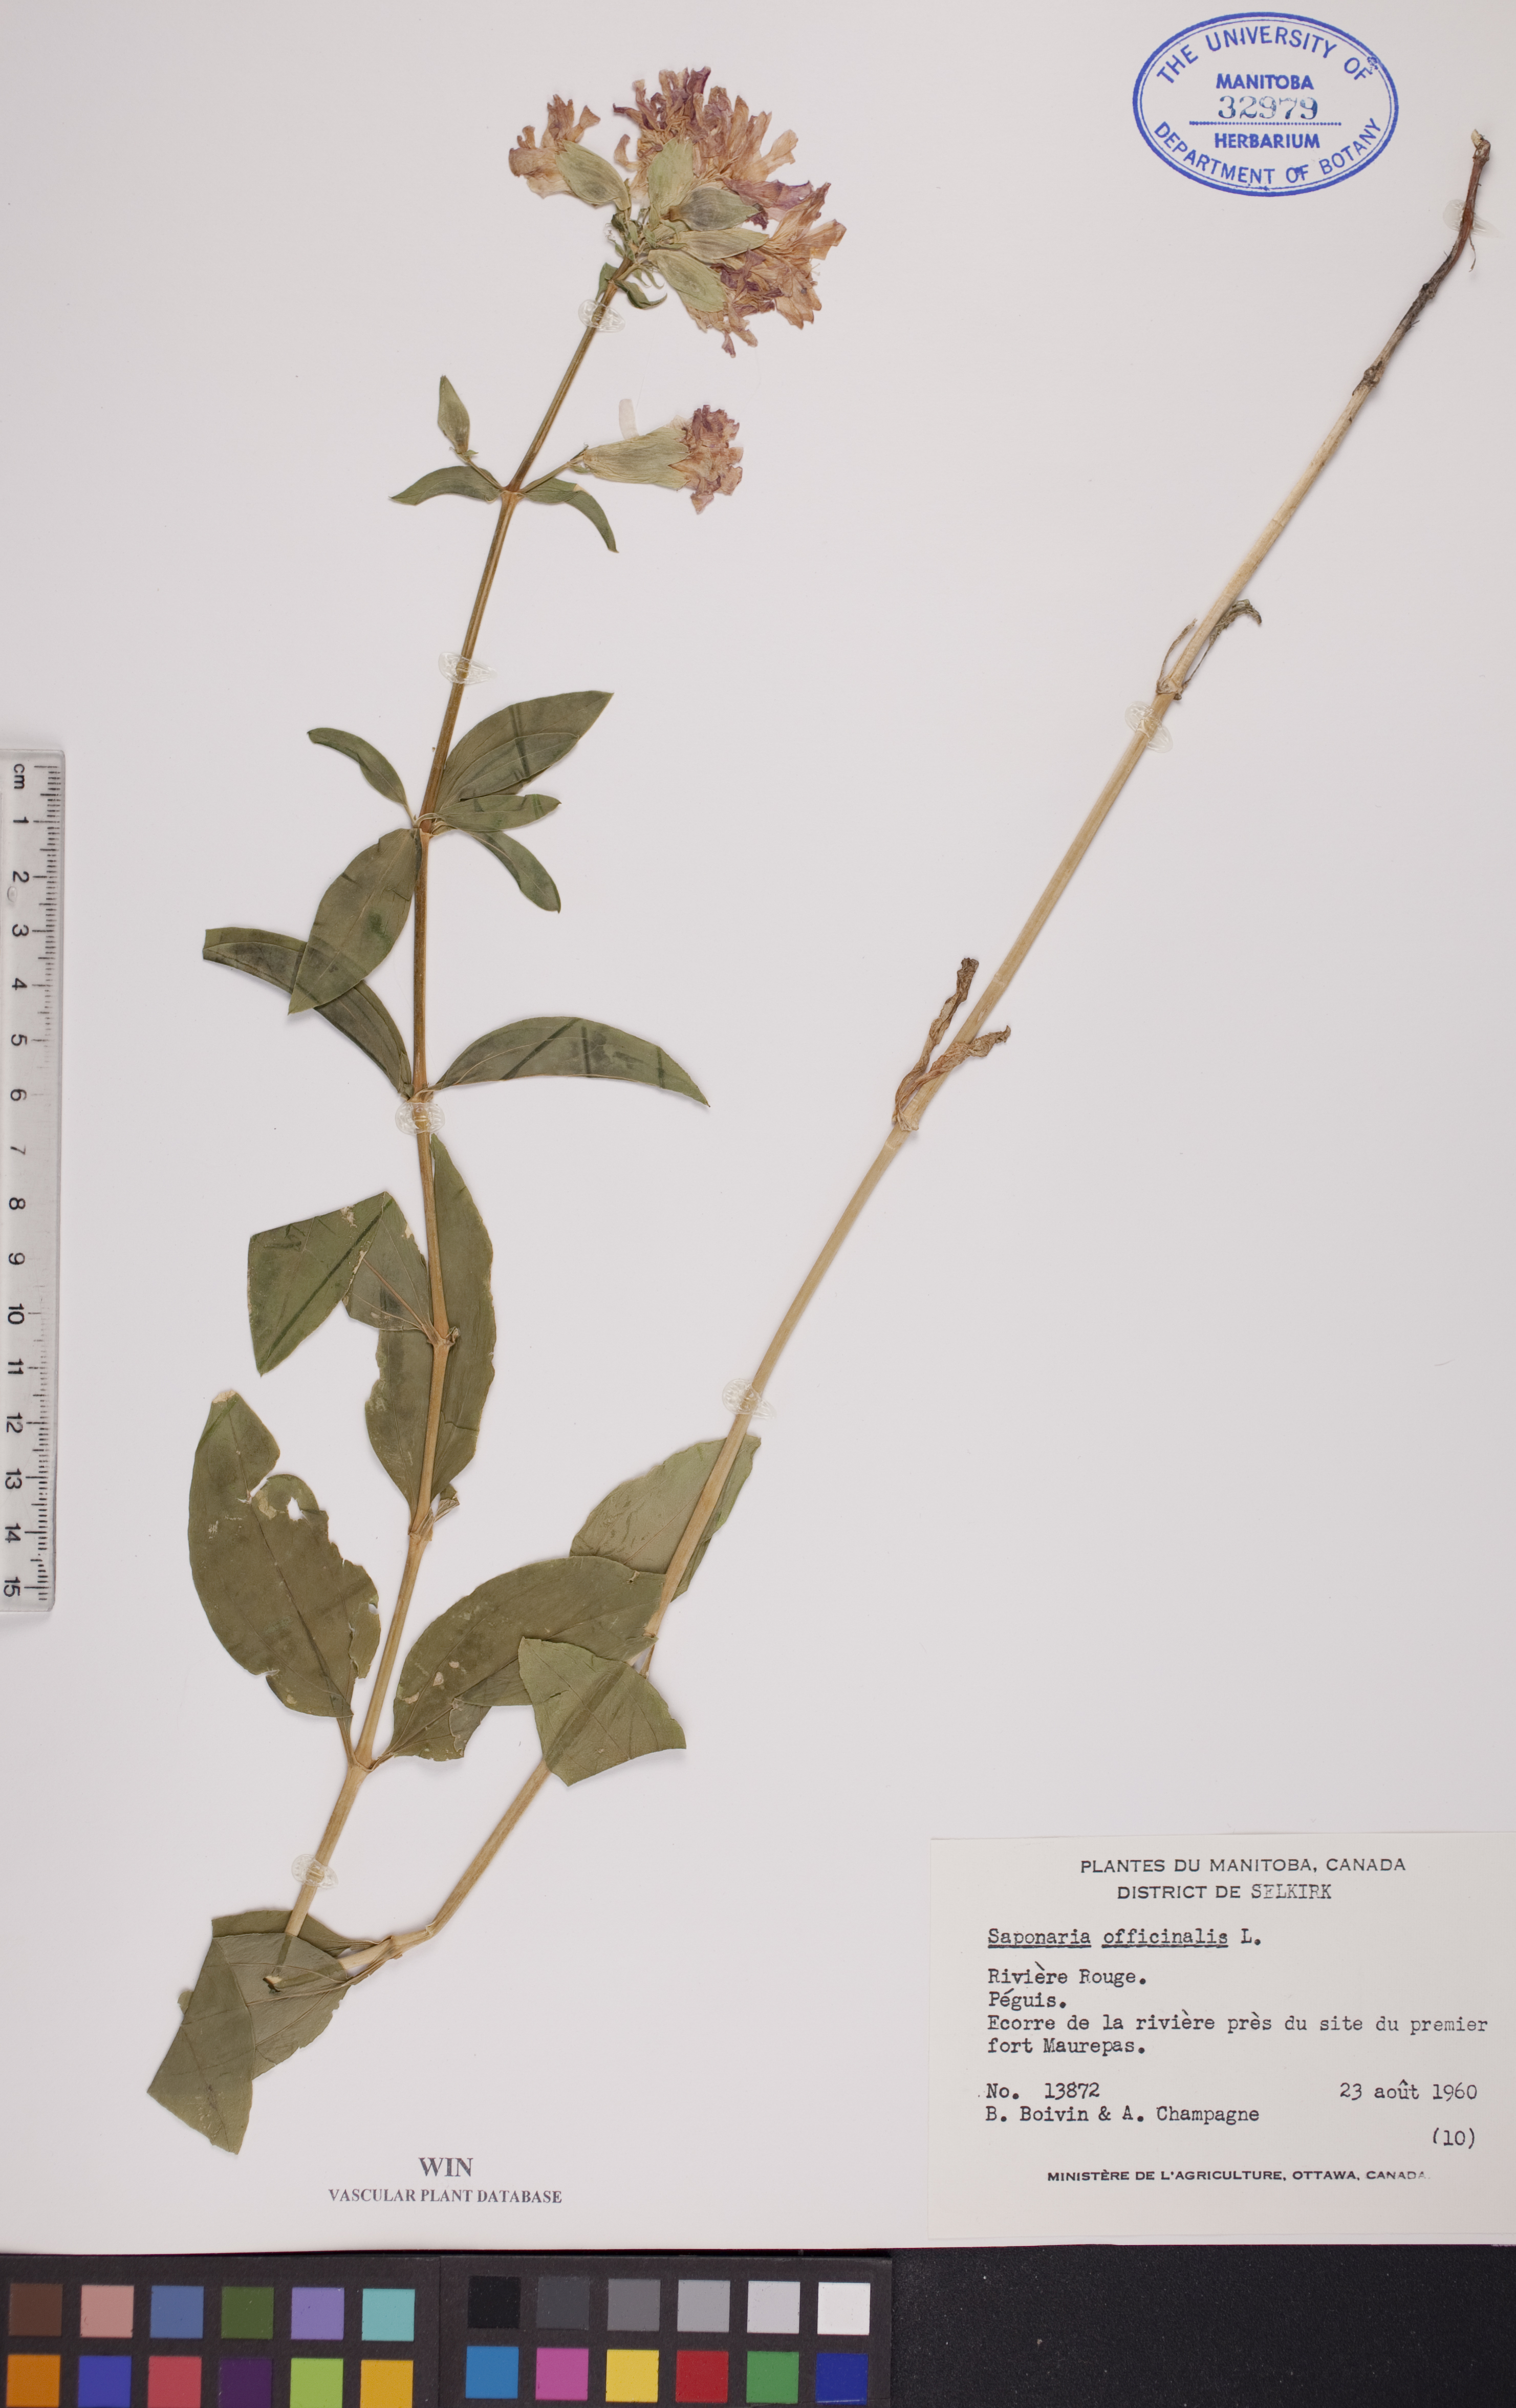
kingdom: Plantae
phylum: Tracheophyta
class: Magnoliopsida
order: Caryophyllales
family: Caryophyllaceae
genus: Saponaria
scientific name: Saponaria officinalis
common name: Soapwort
